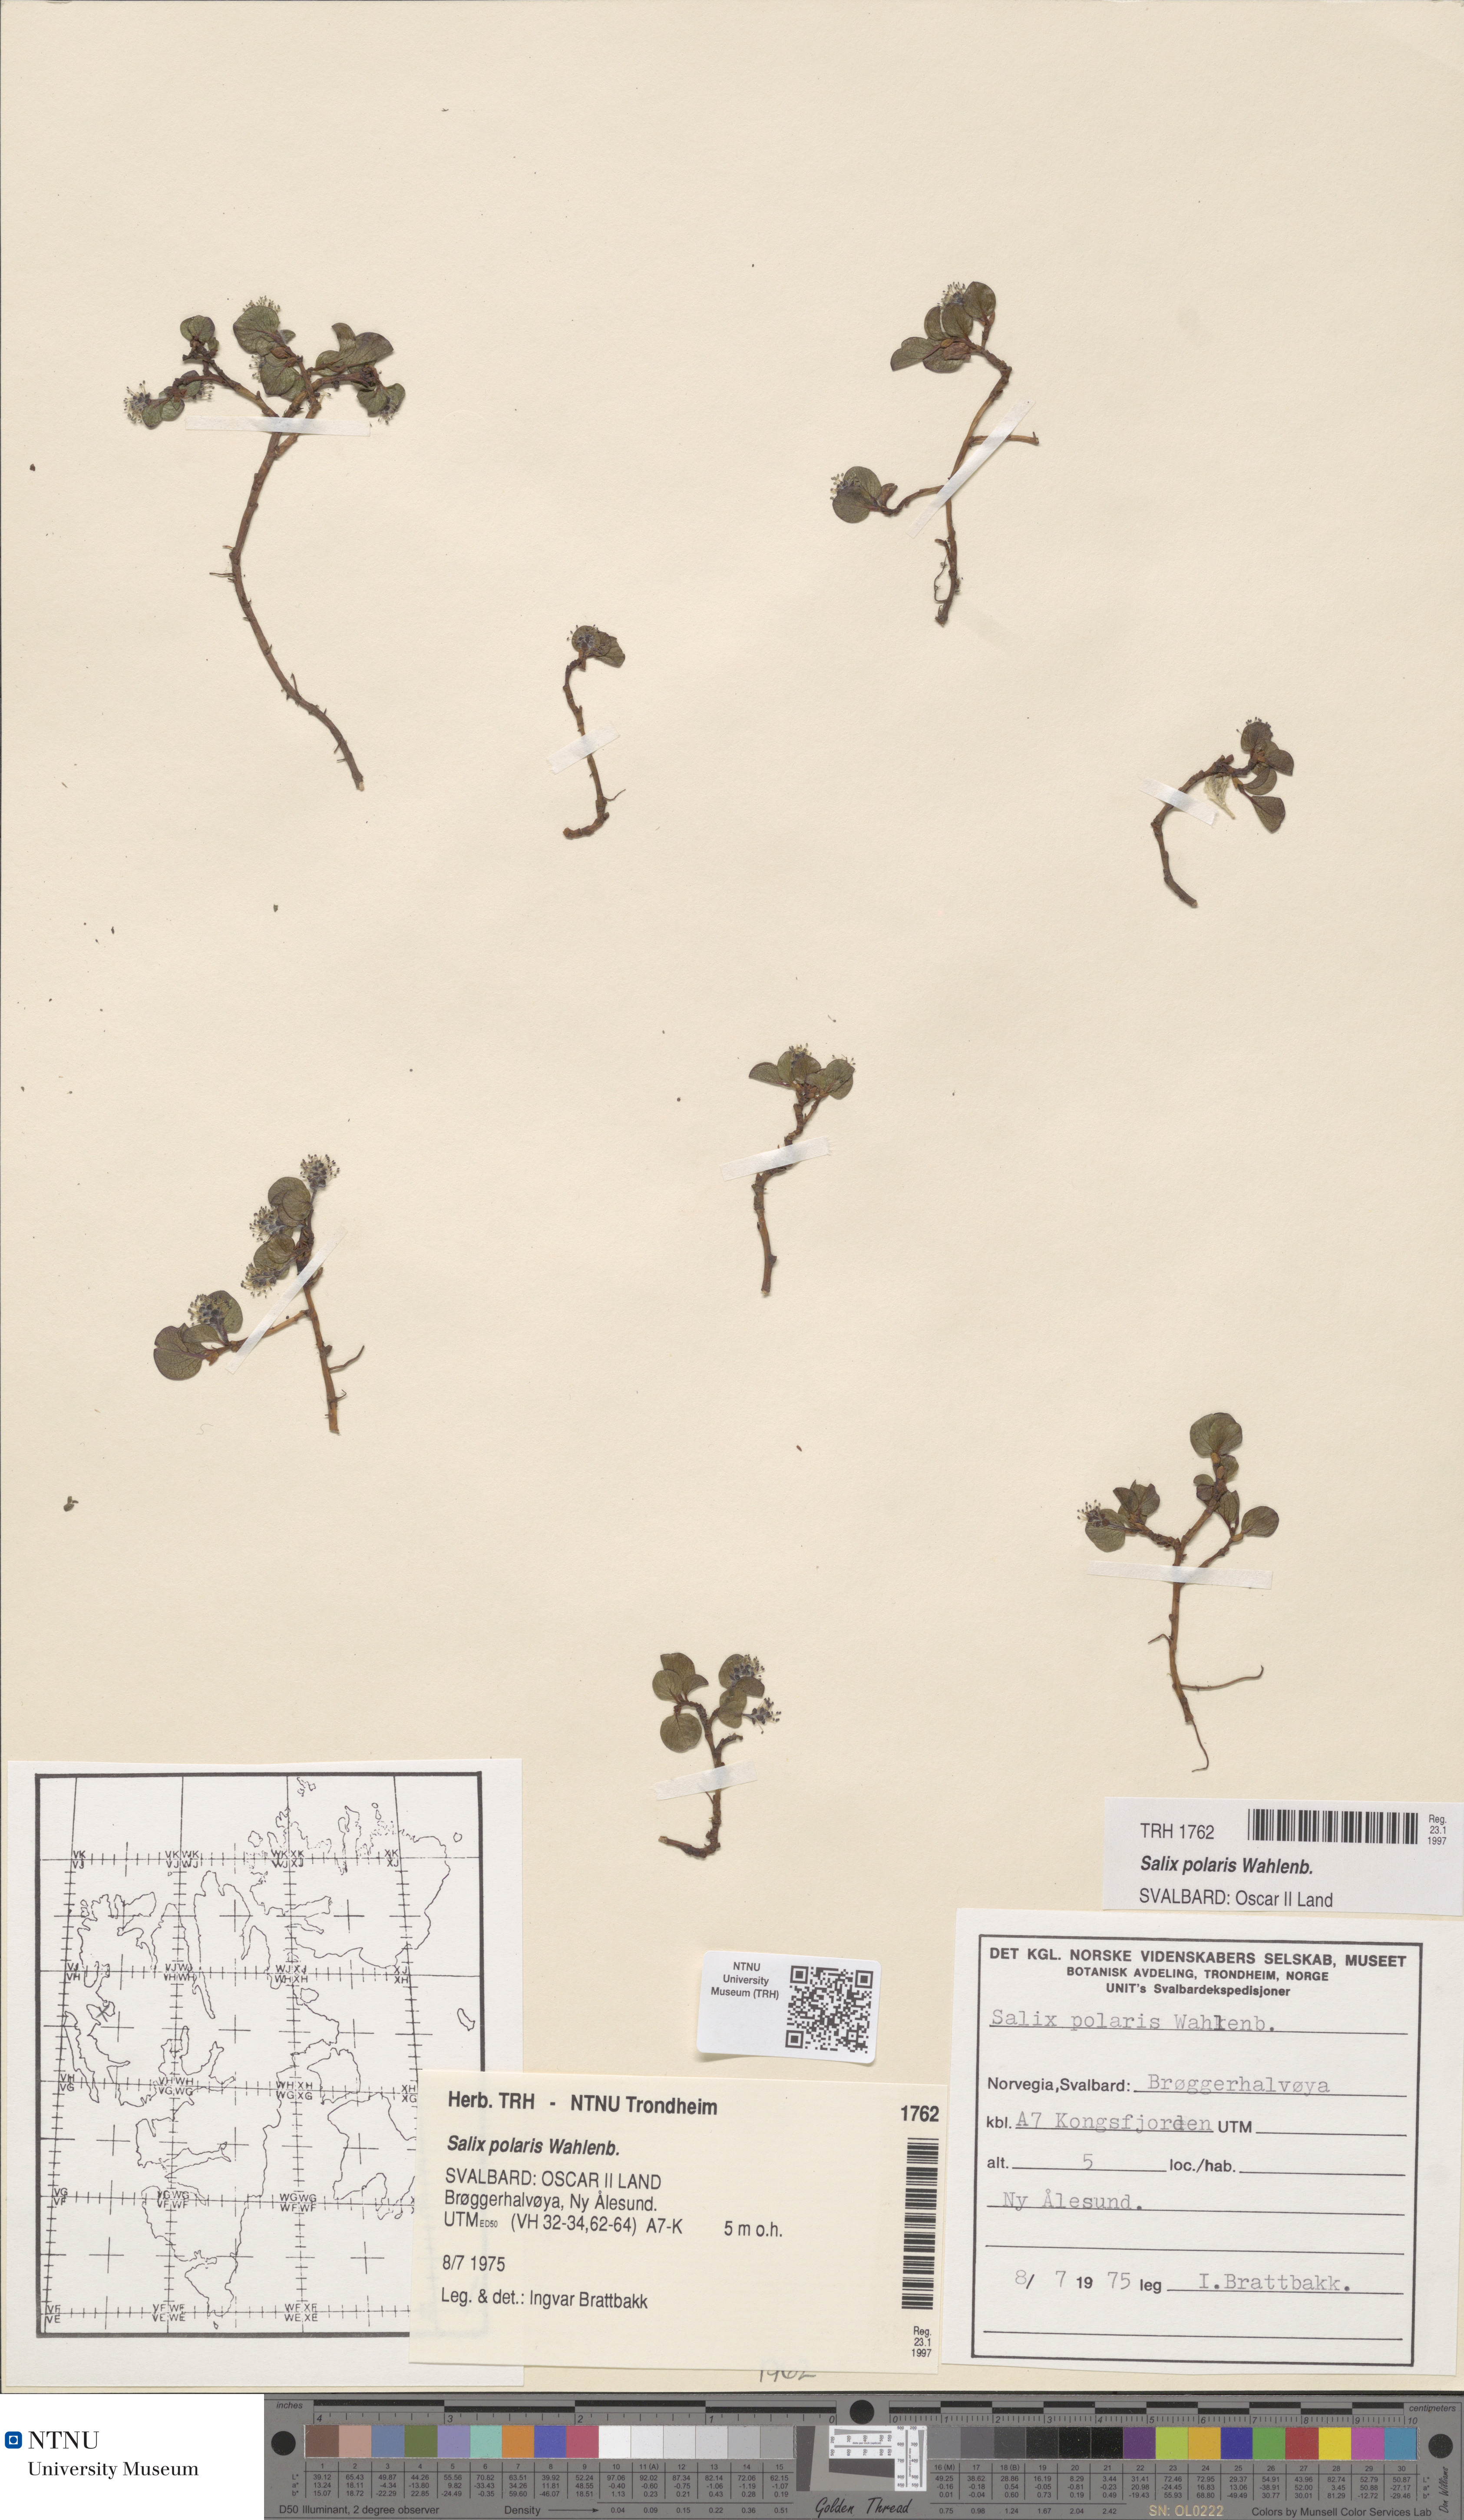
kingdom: Plantae
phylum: Tracheophyta
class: Magnoliopsida
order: Malpighiales
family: Salicaceae
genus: Salix
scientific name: Salix polaris
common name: Polar willow
